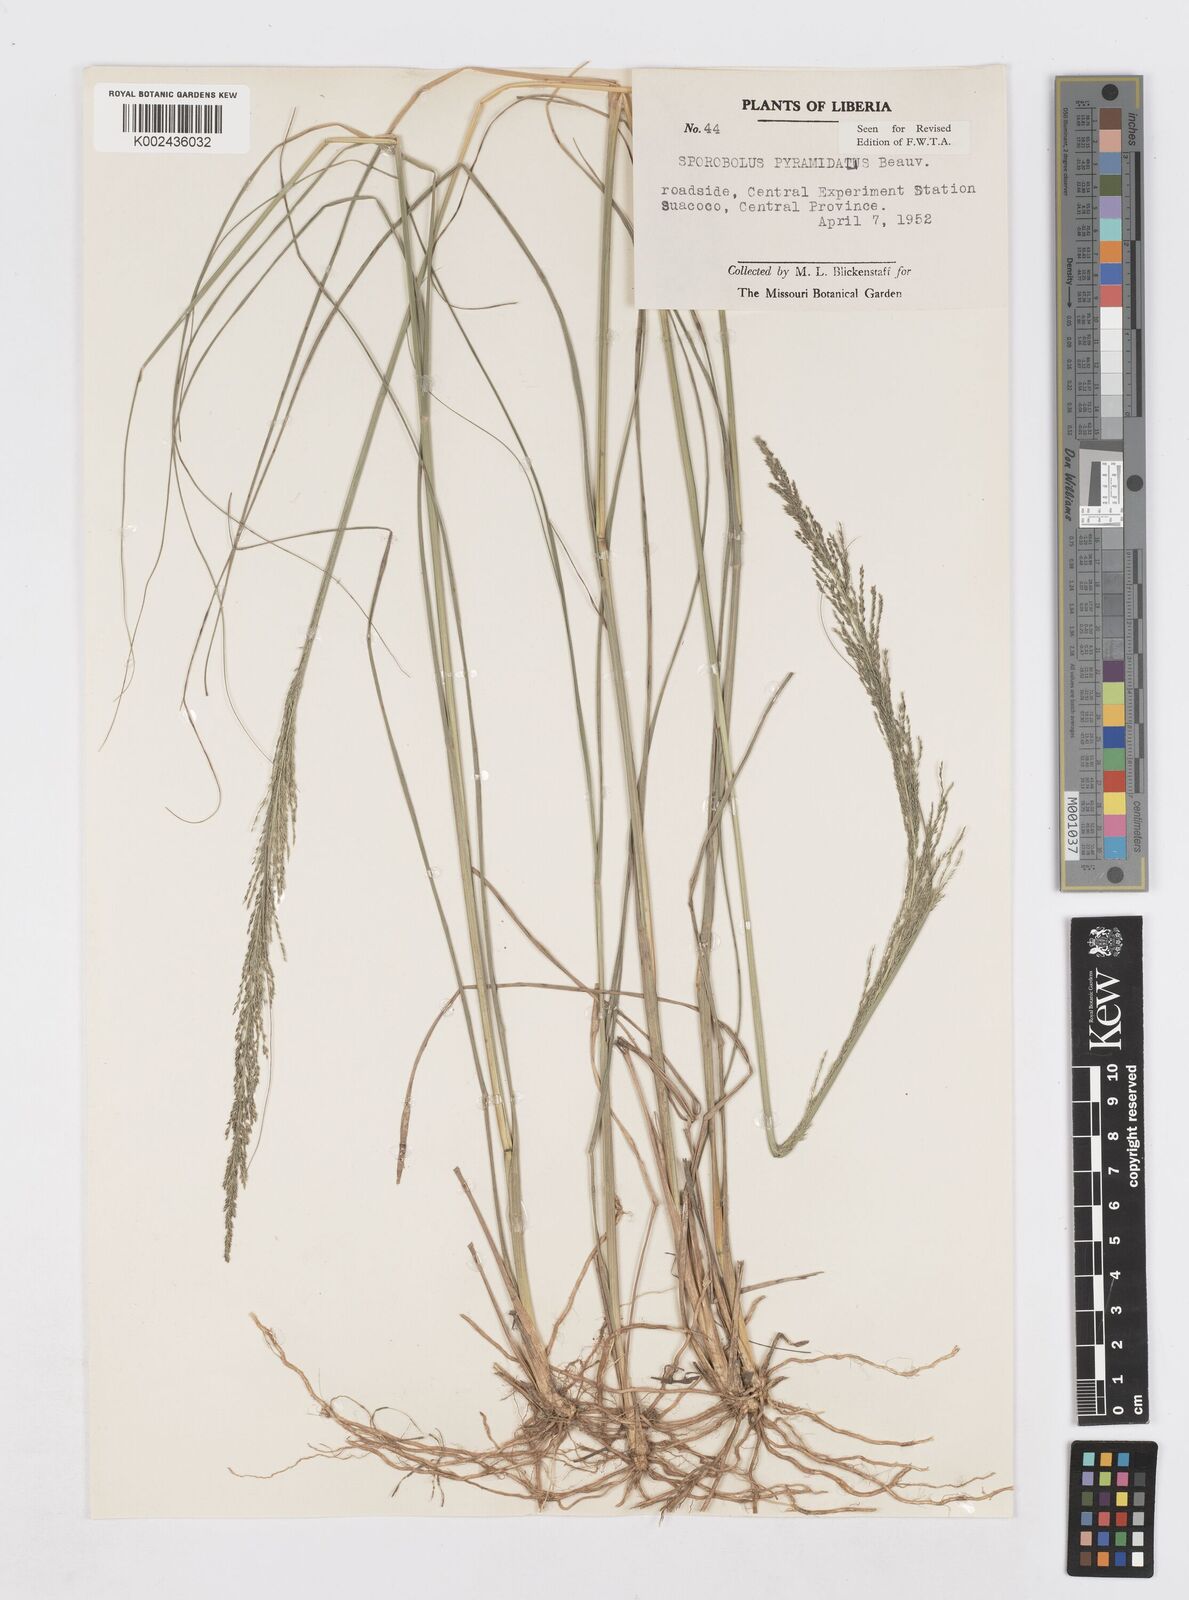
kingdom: Plantae
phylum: Tracheophyta
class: Liliopsida
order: Poales
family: Poaceae
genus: Sporobolus
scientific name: Sporobolus pyramidalis
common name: West indian dropseed
